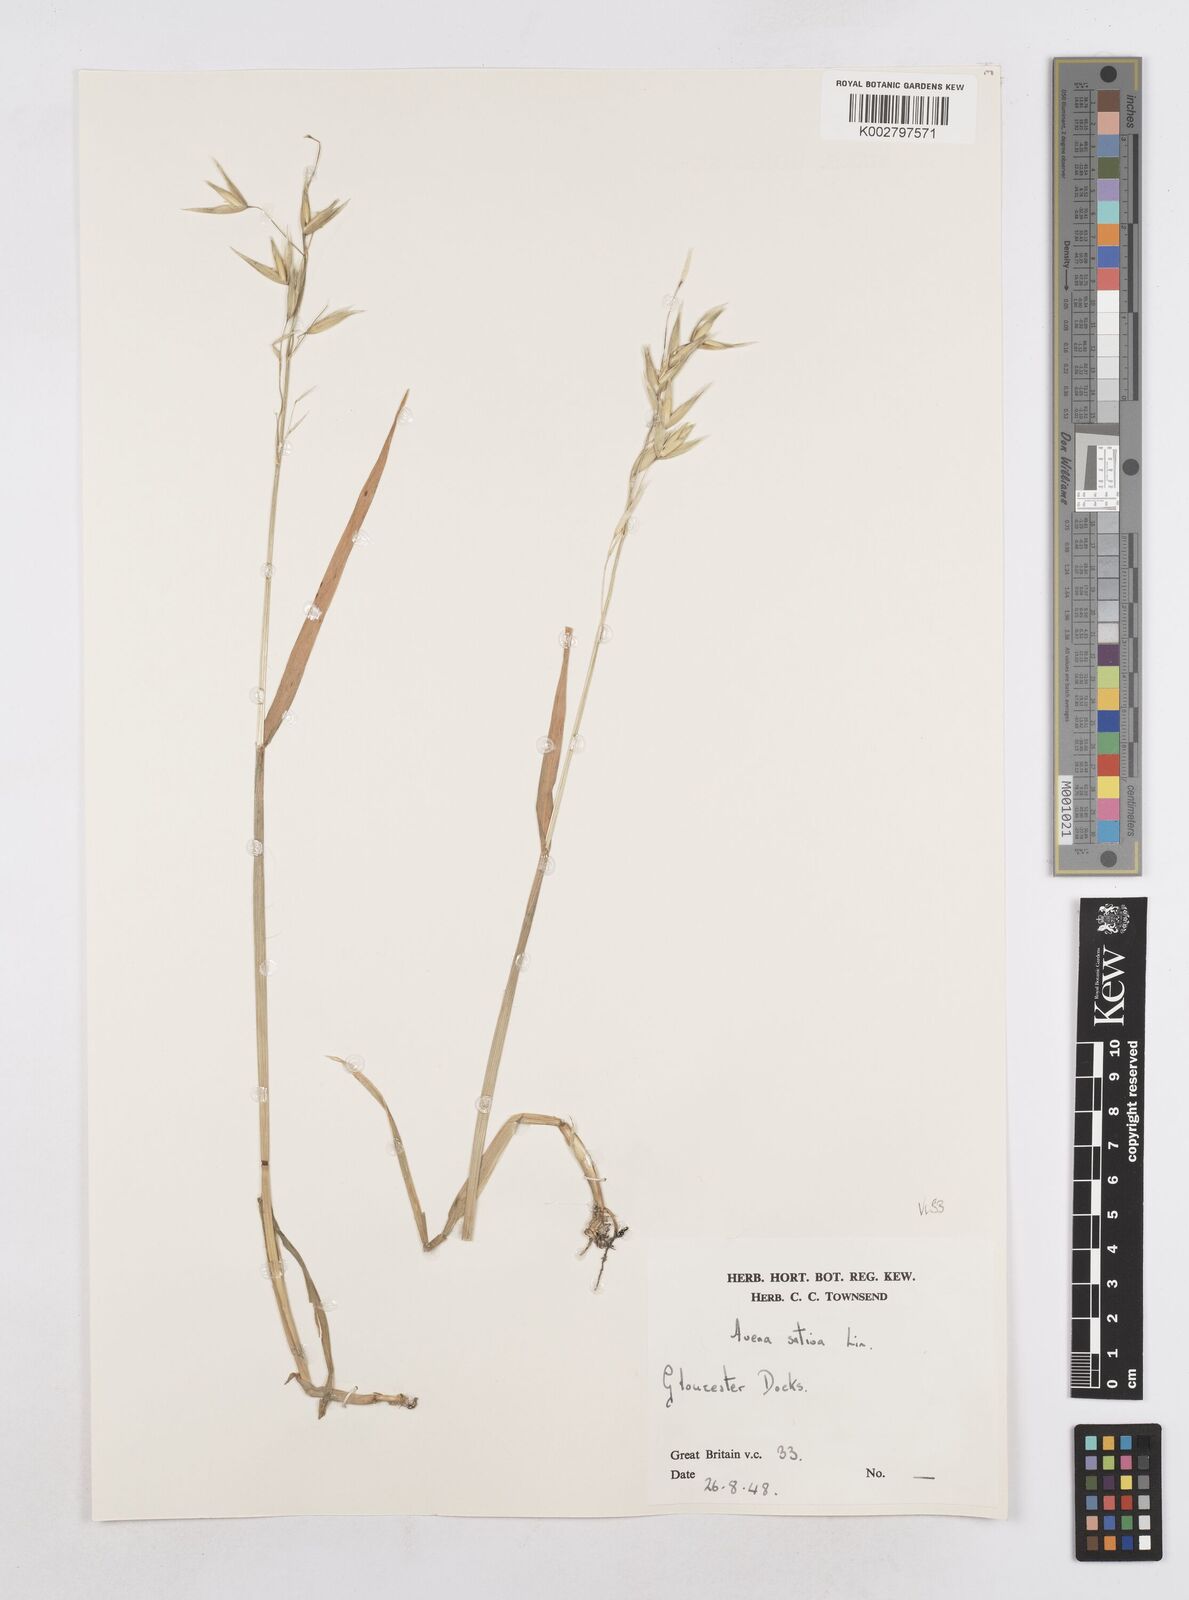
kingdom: Plantae
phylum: Tracheophyta
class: Liliopsida
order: Poales
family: Poaceae
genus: Avena
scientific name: Avena sativa
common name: Oat
